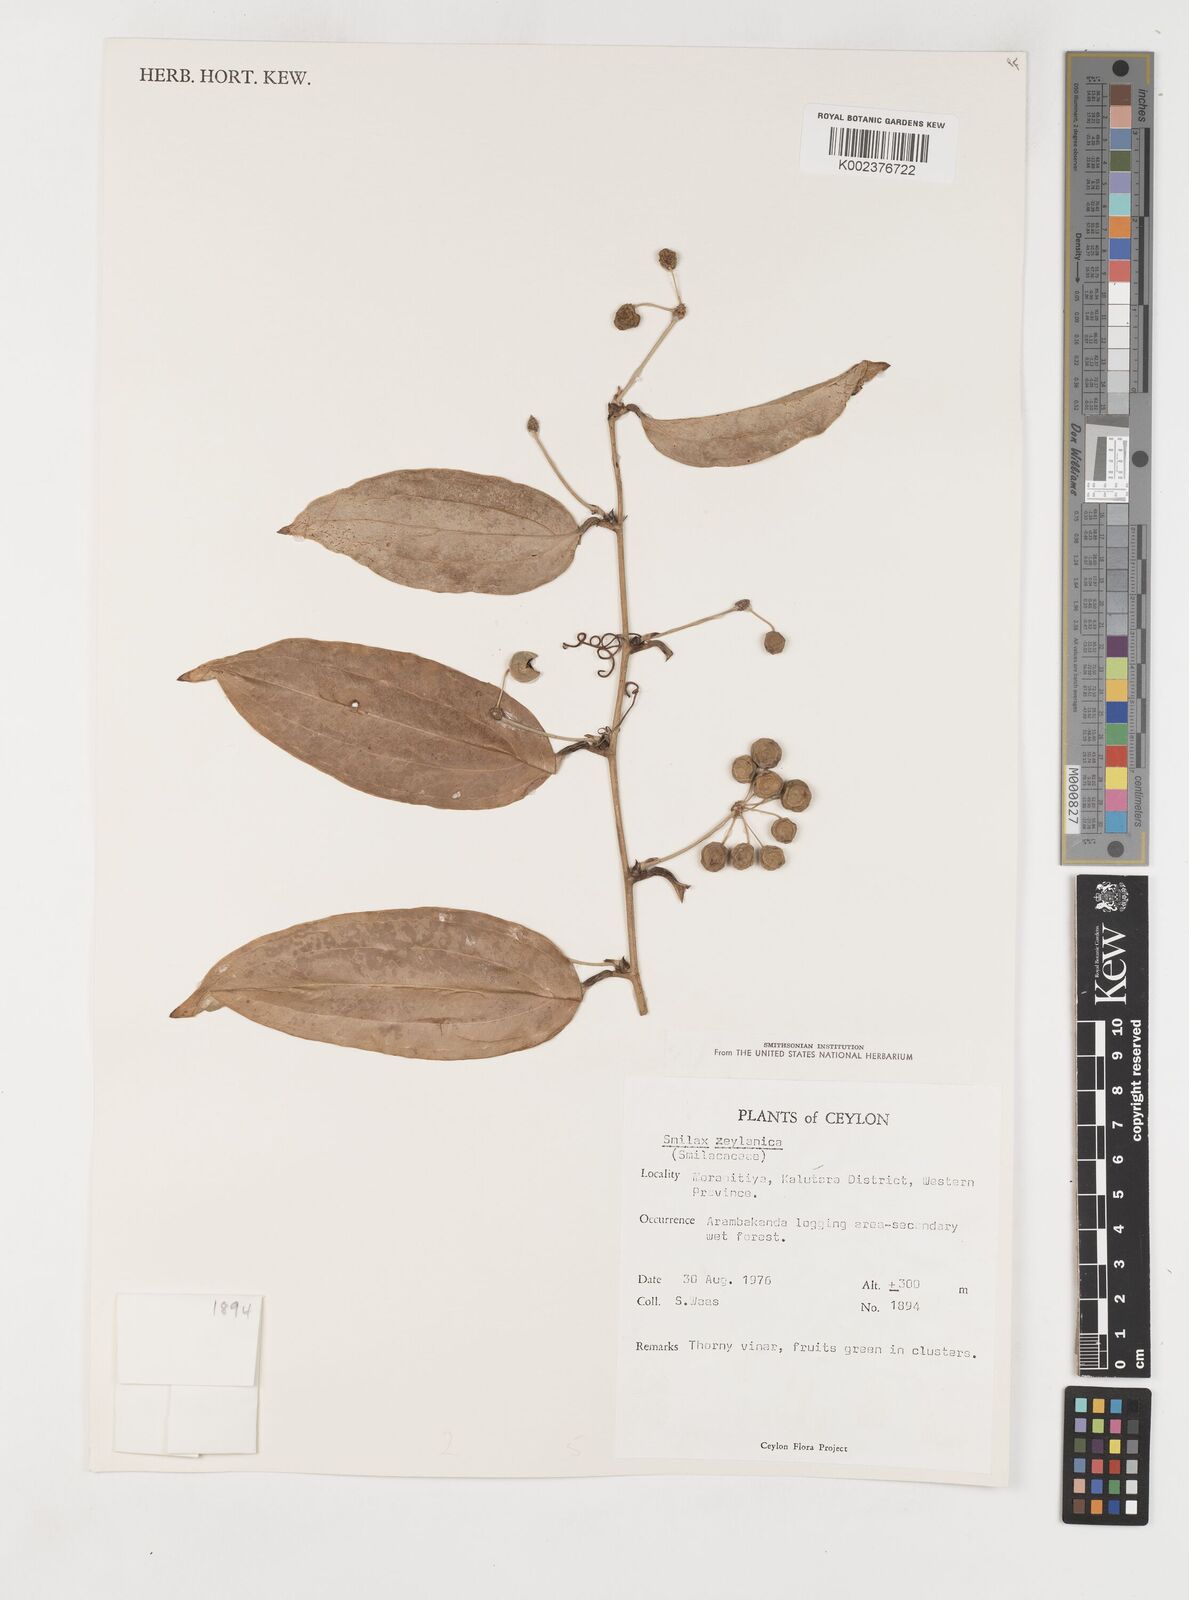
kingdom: Plantae
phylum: Tracheophyta
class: Liliopsida
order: Liliales
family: Smilacaceae
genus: Smilax
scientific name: Smilax zeylanica
